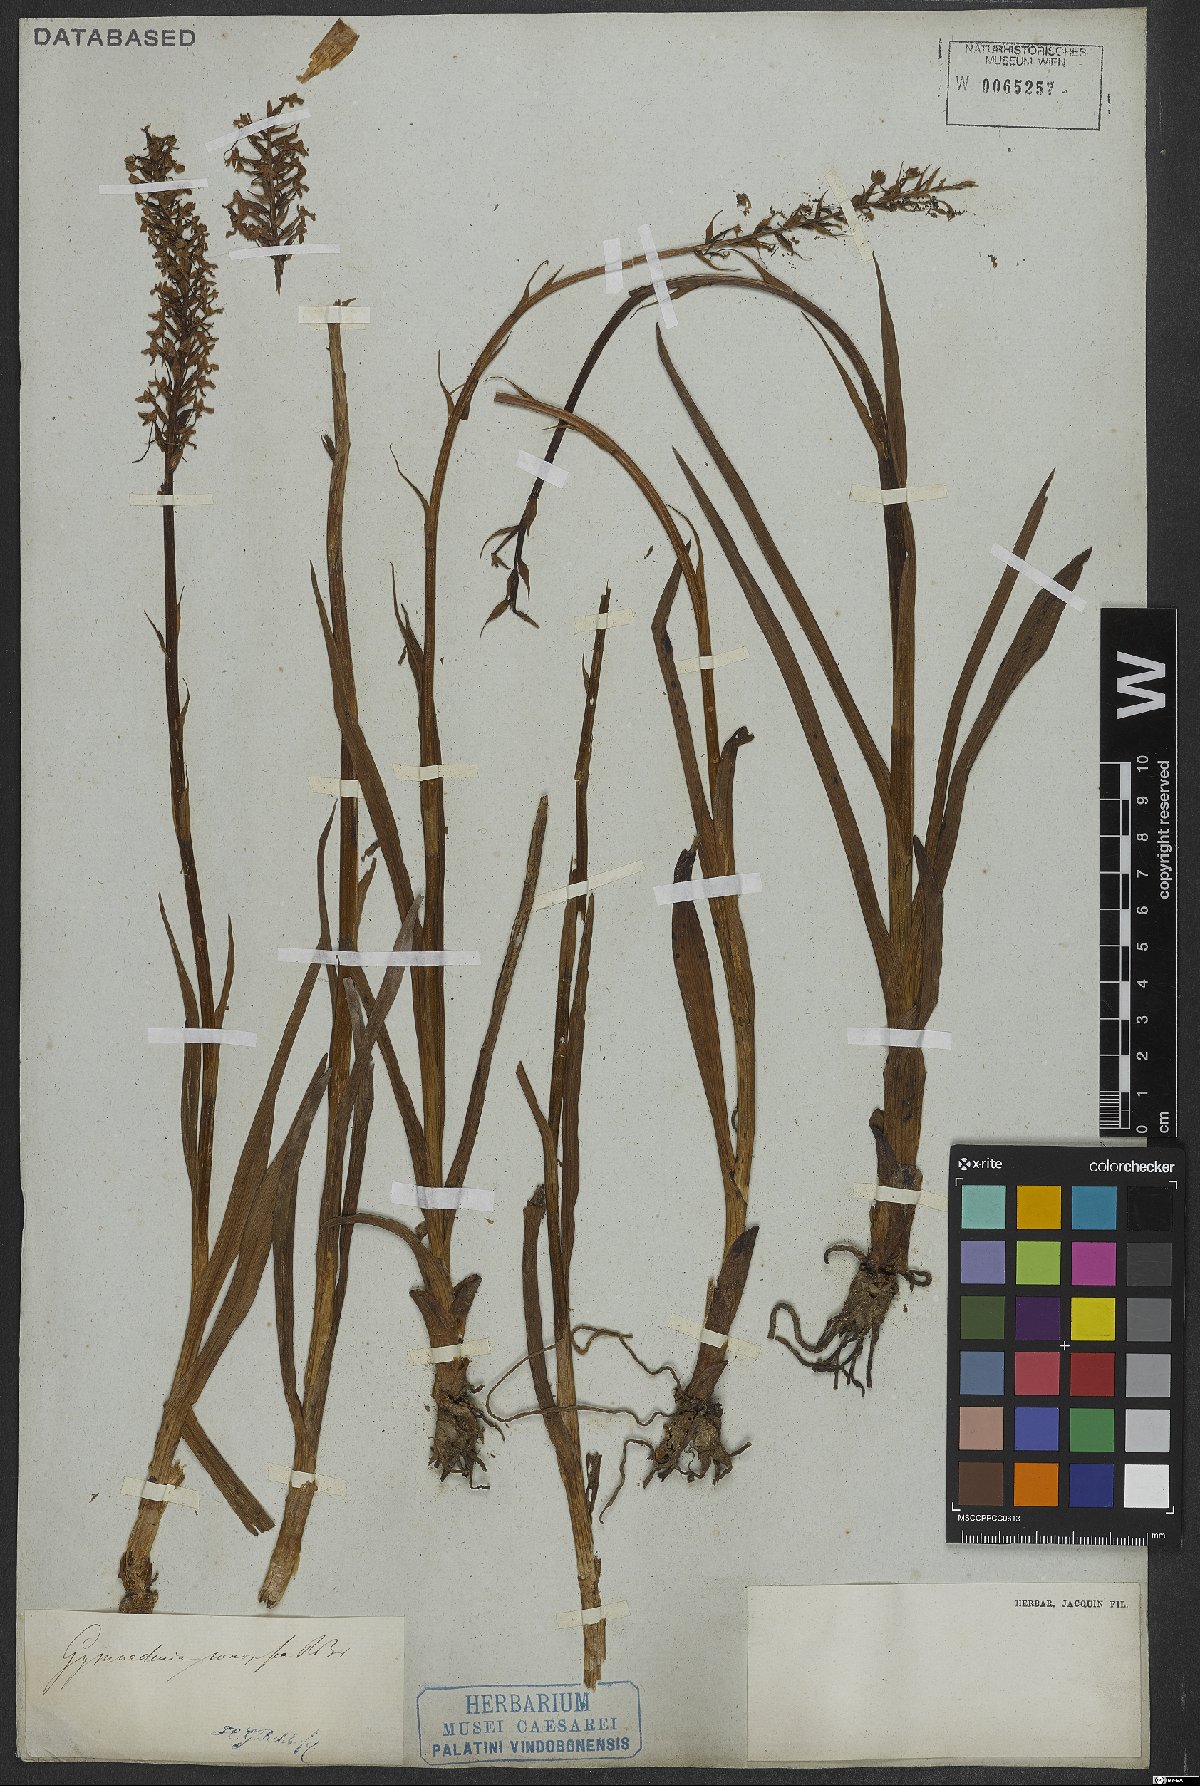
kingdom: Plantae
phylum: Tracheophyta
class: Liliopsida
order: Asparagales
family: Orchidaceae
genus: Gymnadenia
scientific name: Gymnadenia conopsea
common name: Fragrant orchid
